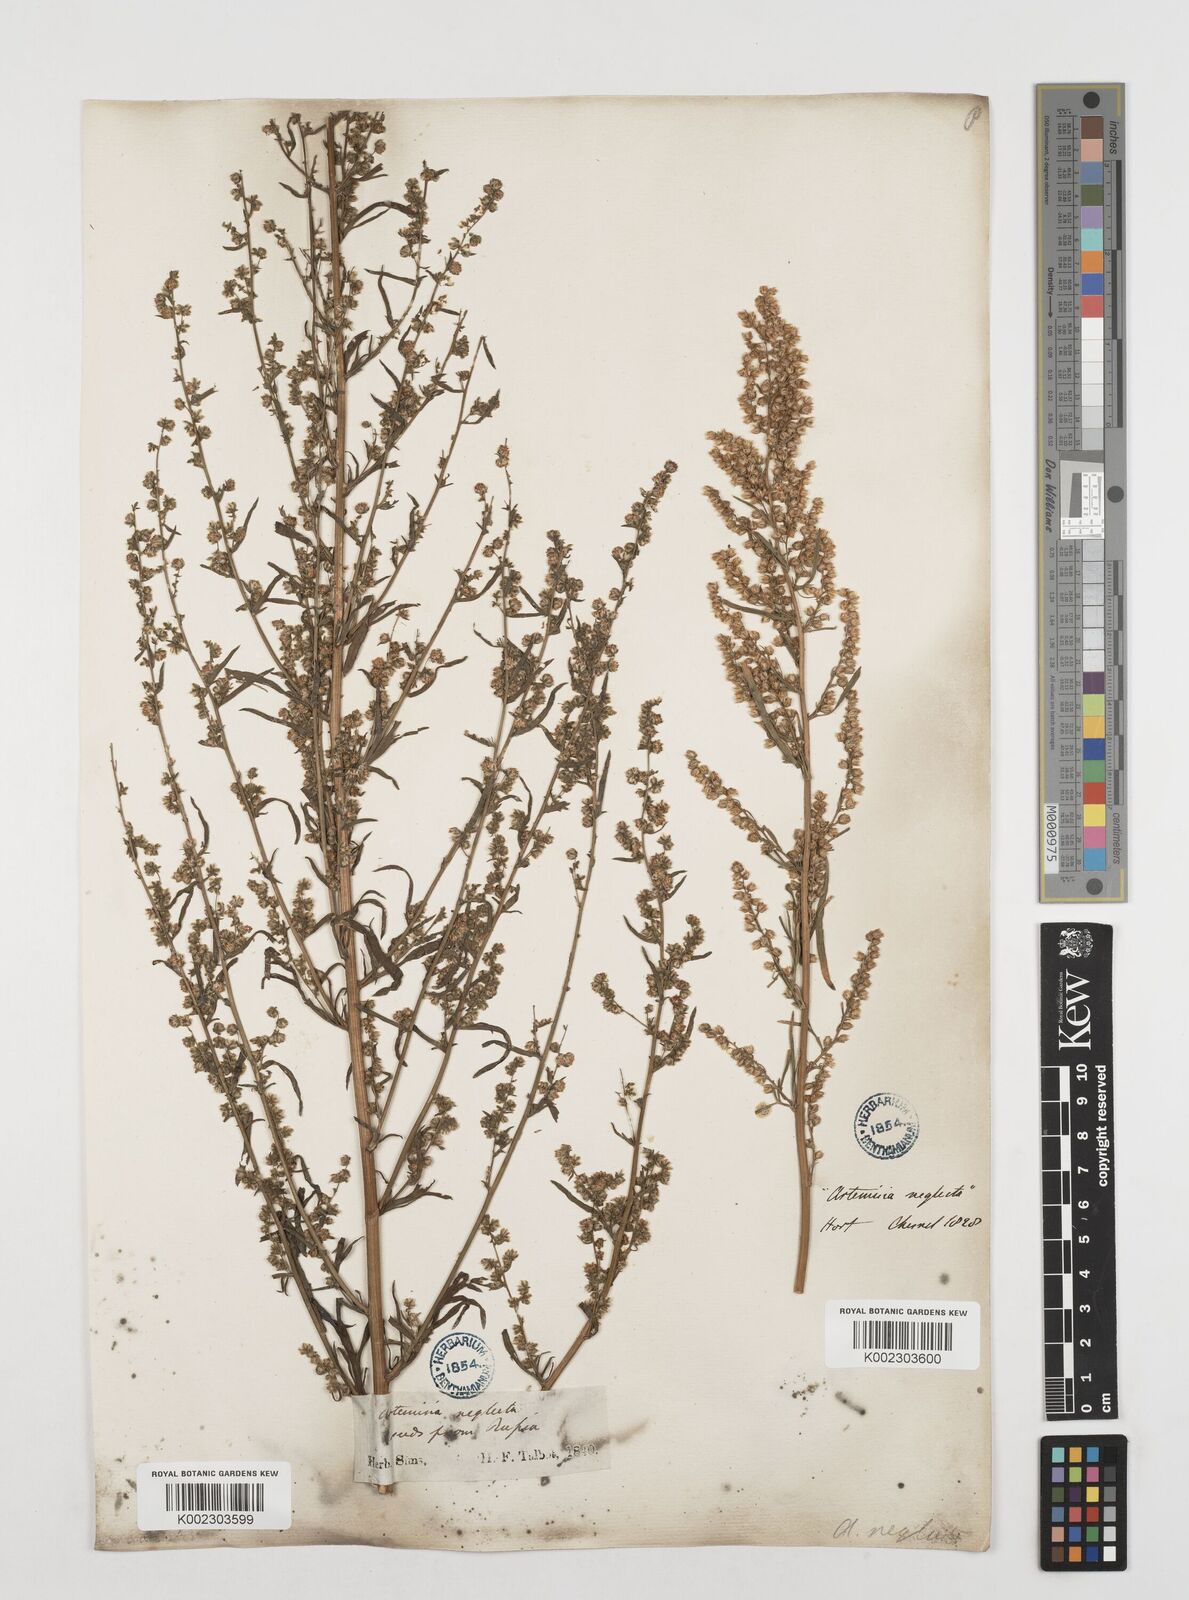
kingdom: Plantae
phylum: Tracheophyta
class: Magnoliopsida
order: Asterales
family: Asteraceae
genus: Artemisia
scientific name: Artemisia desertorum
